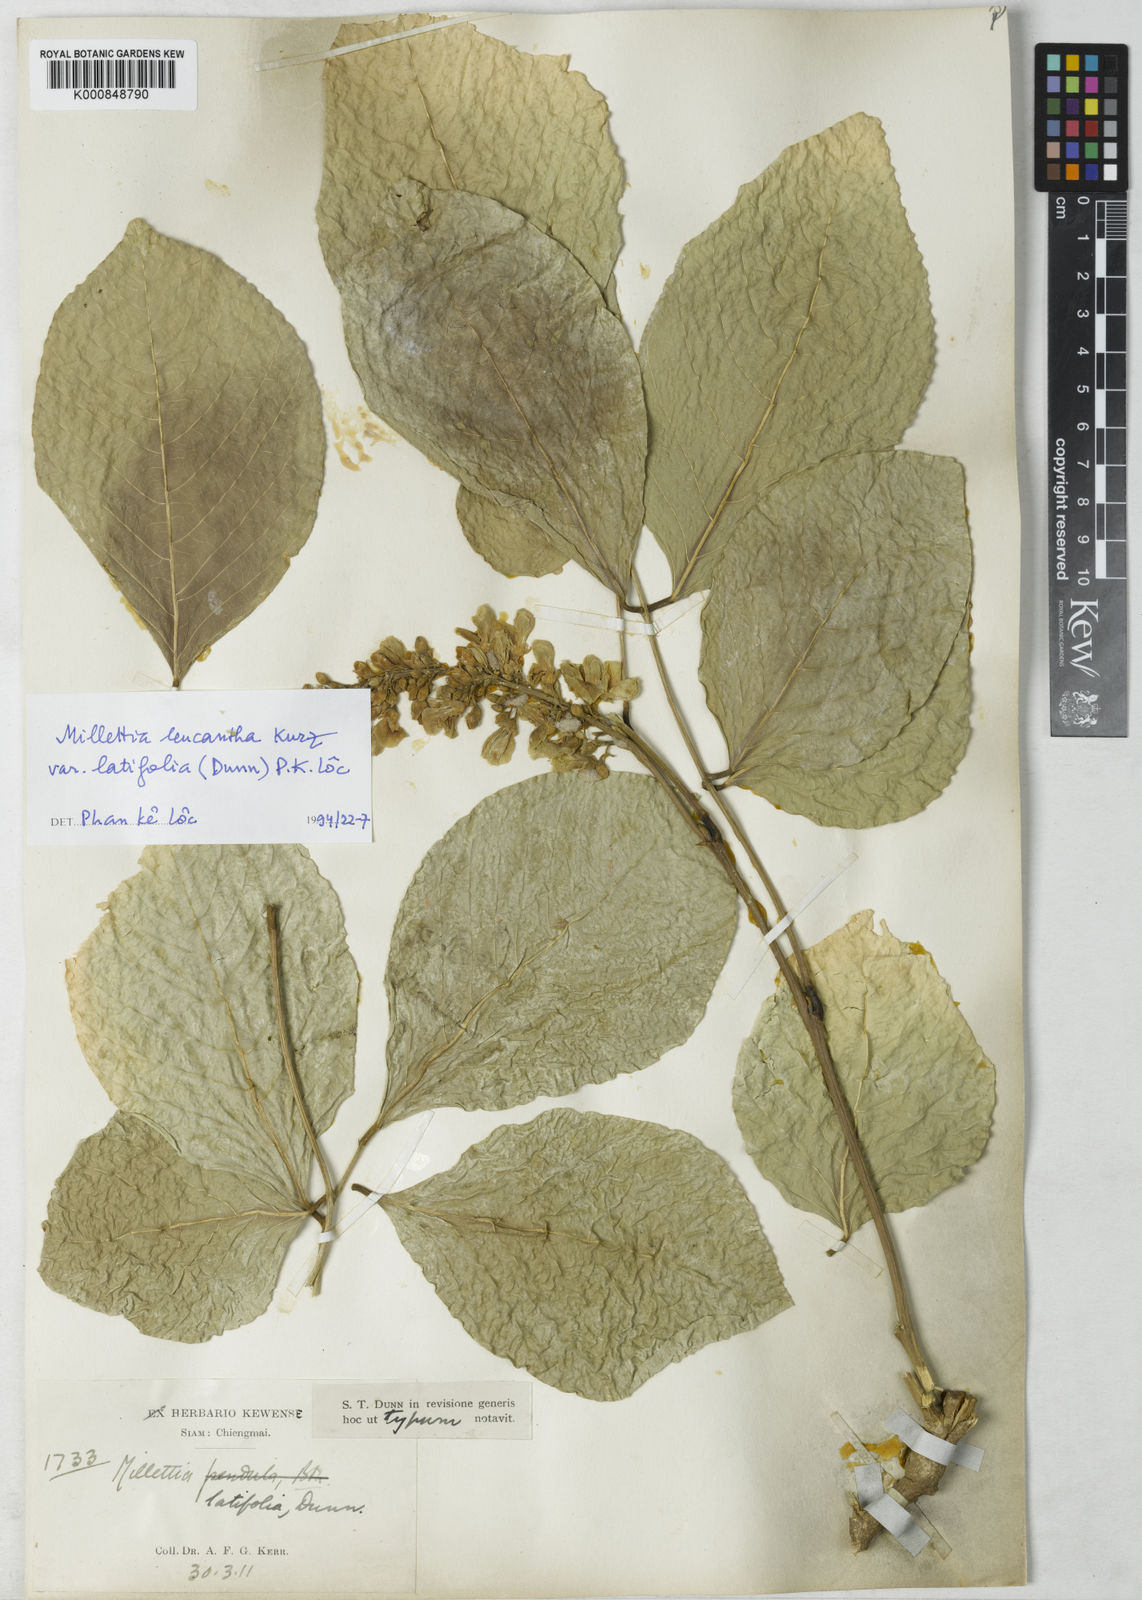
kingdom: Plantae
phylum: Tracheophyta
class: Magnoliopsida
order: Fabales
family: Fabaceae
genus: Imbralyx
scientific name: Imbralyx leucanthus
